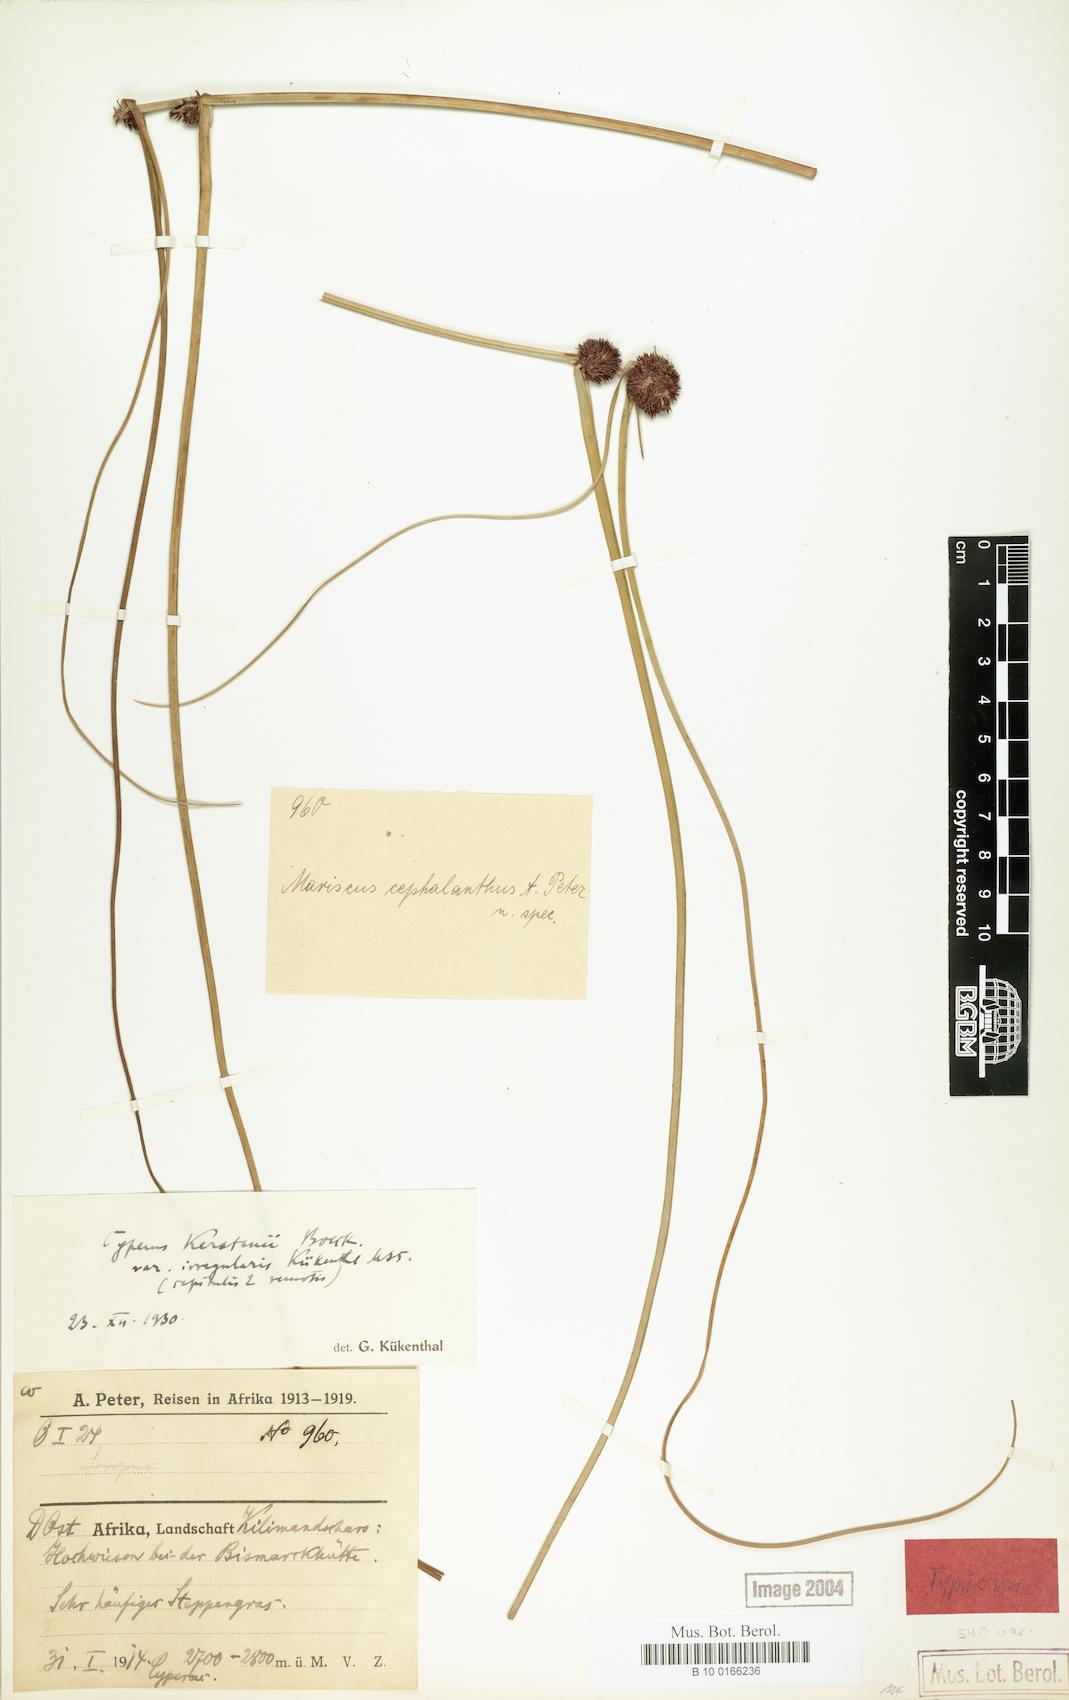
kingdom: Plantae
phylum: Tracheophyta
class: Liliopsida
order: Poales
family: Cyperaceae
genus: Cyperus
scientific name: Cyperus kerstenii
